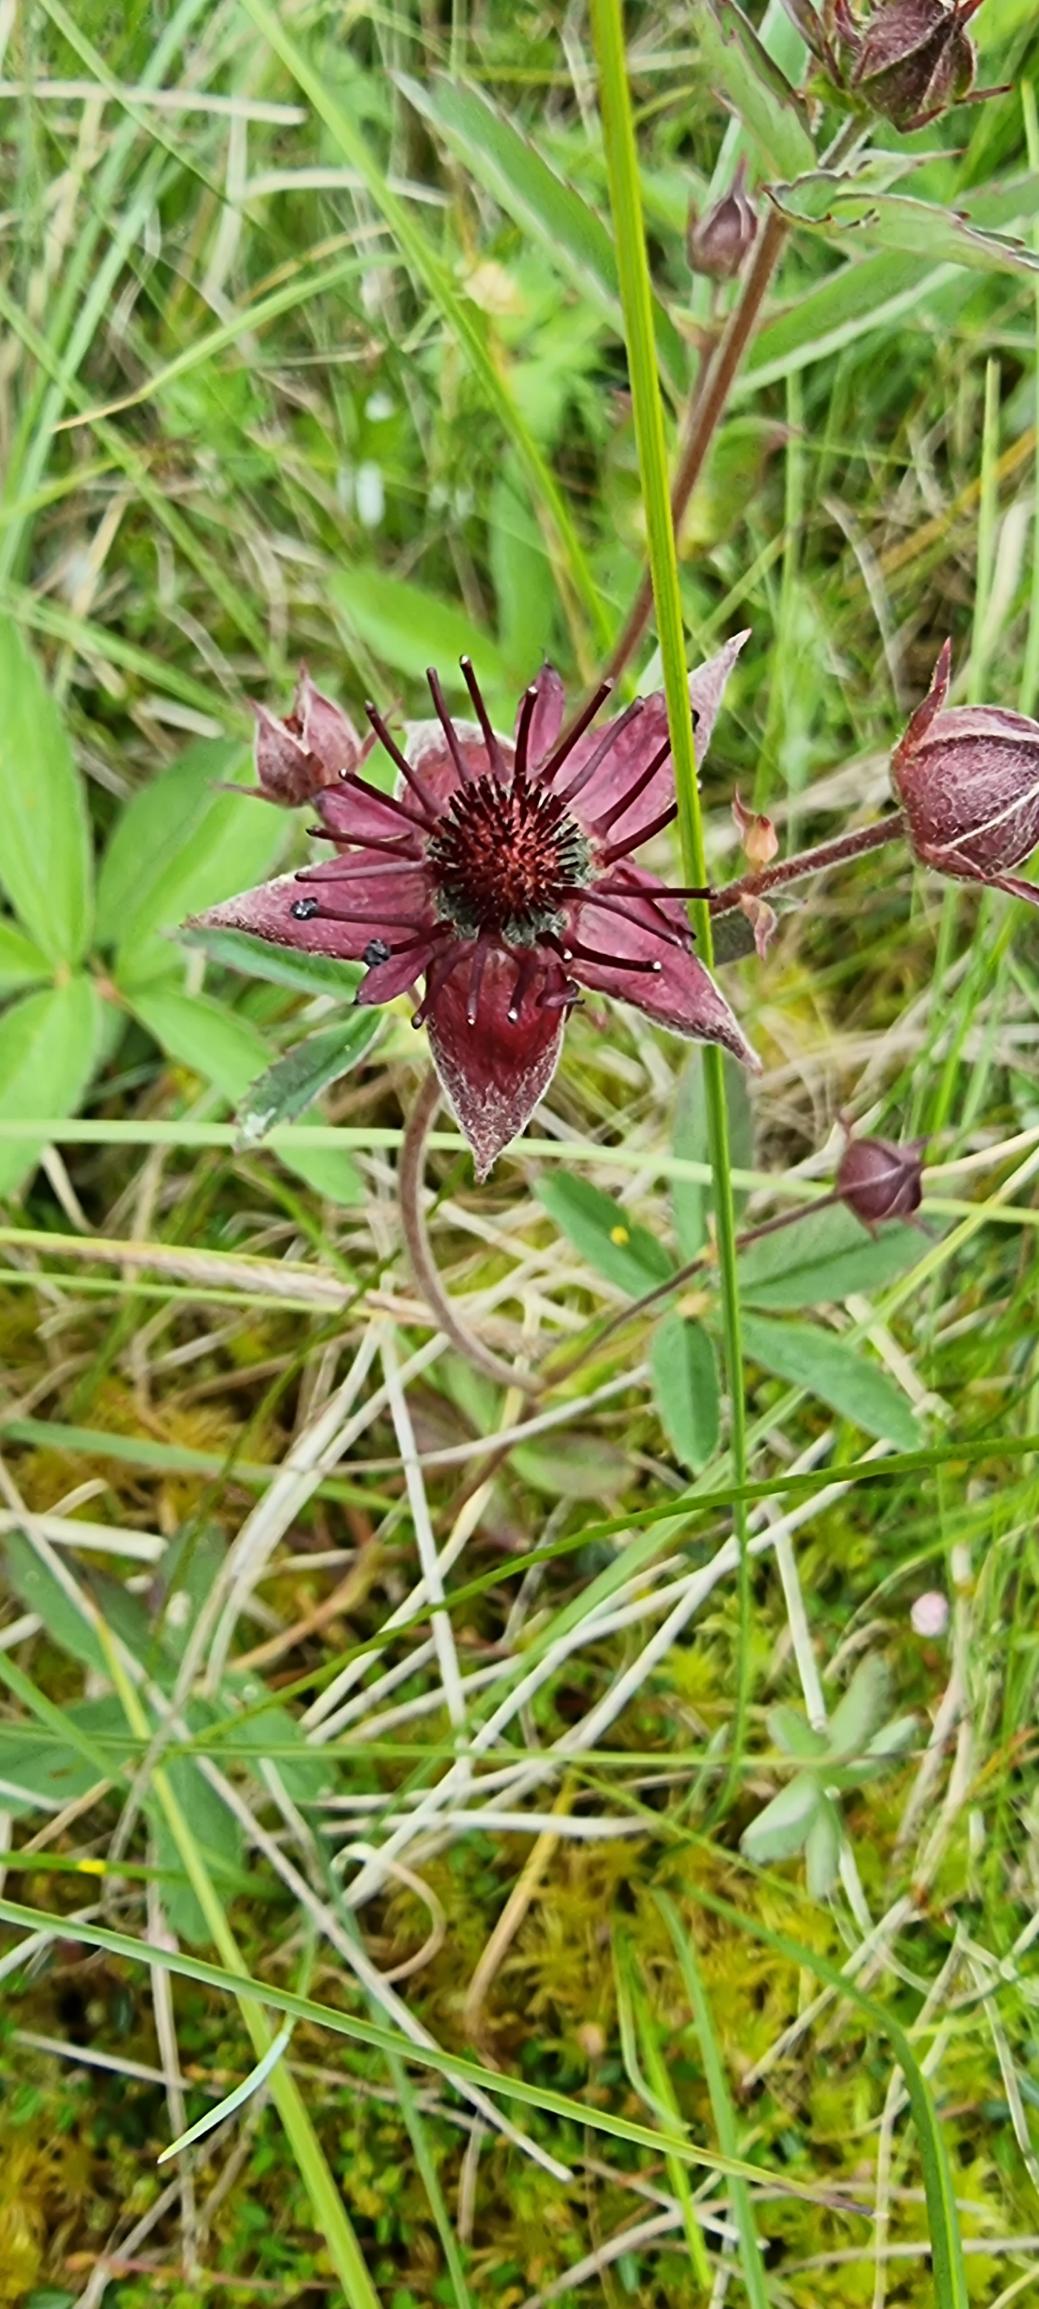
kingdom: Plantae
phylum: Tracheophyta
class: Magnoliopsida
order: Rosales
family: Rosaceae
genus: Comarum
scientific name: Comarum palustre
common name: Kragefod
